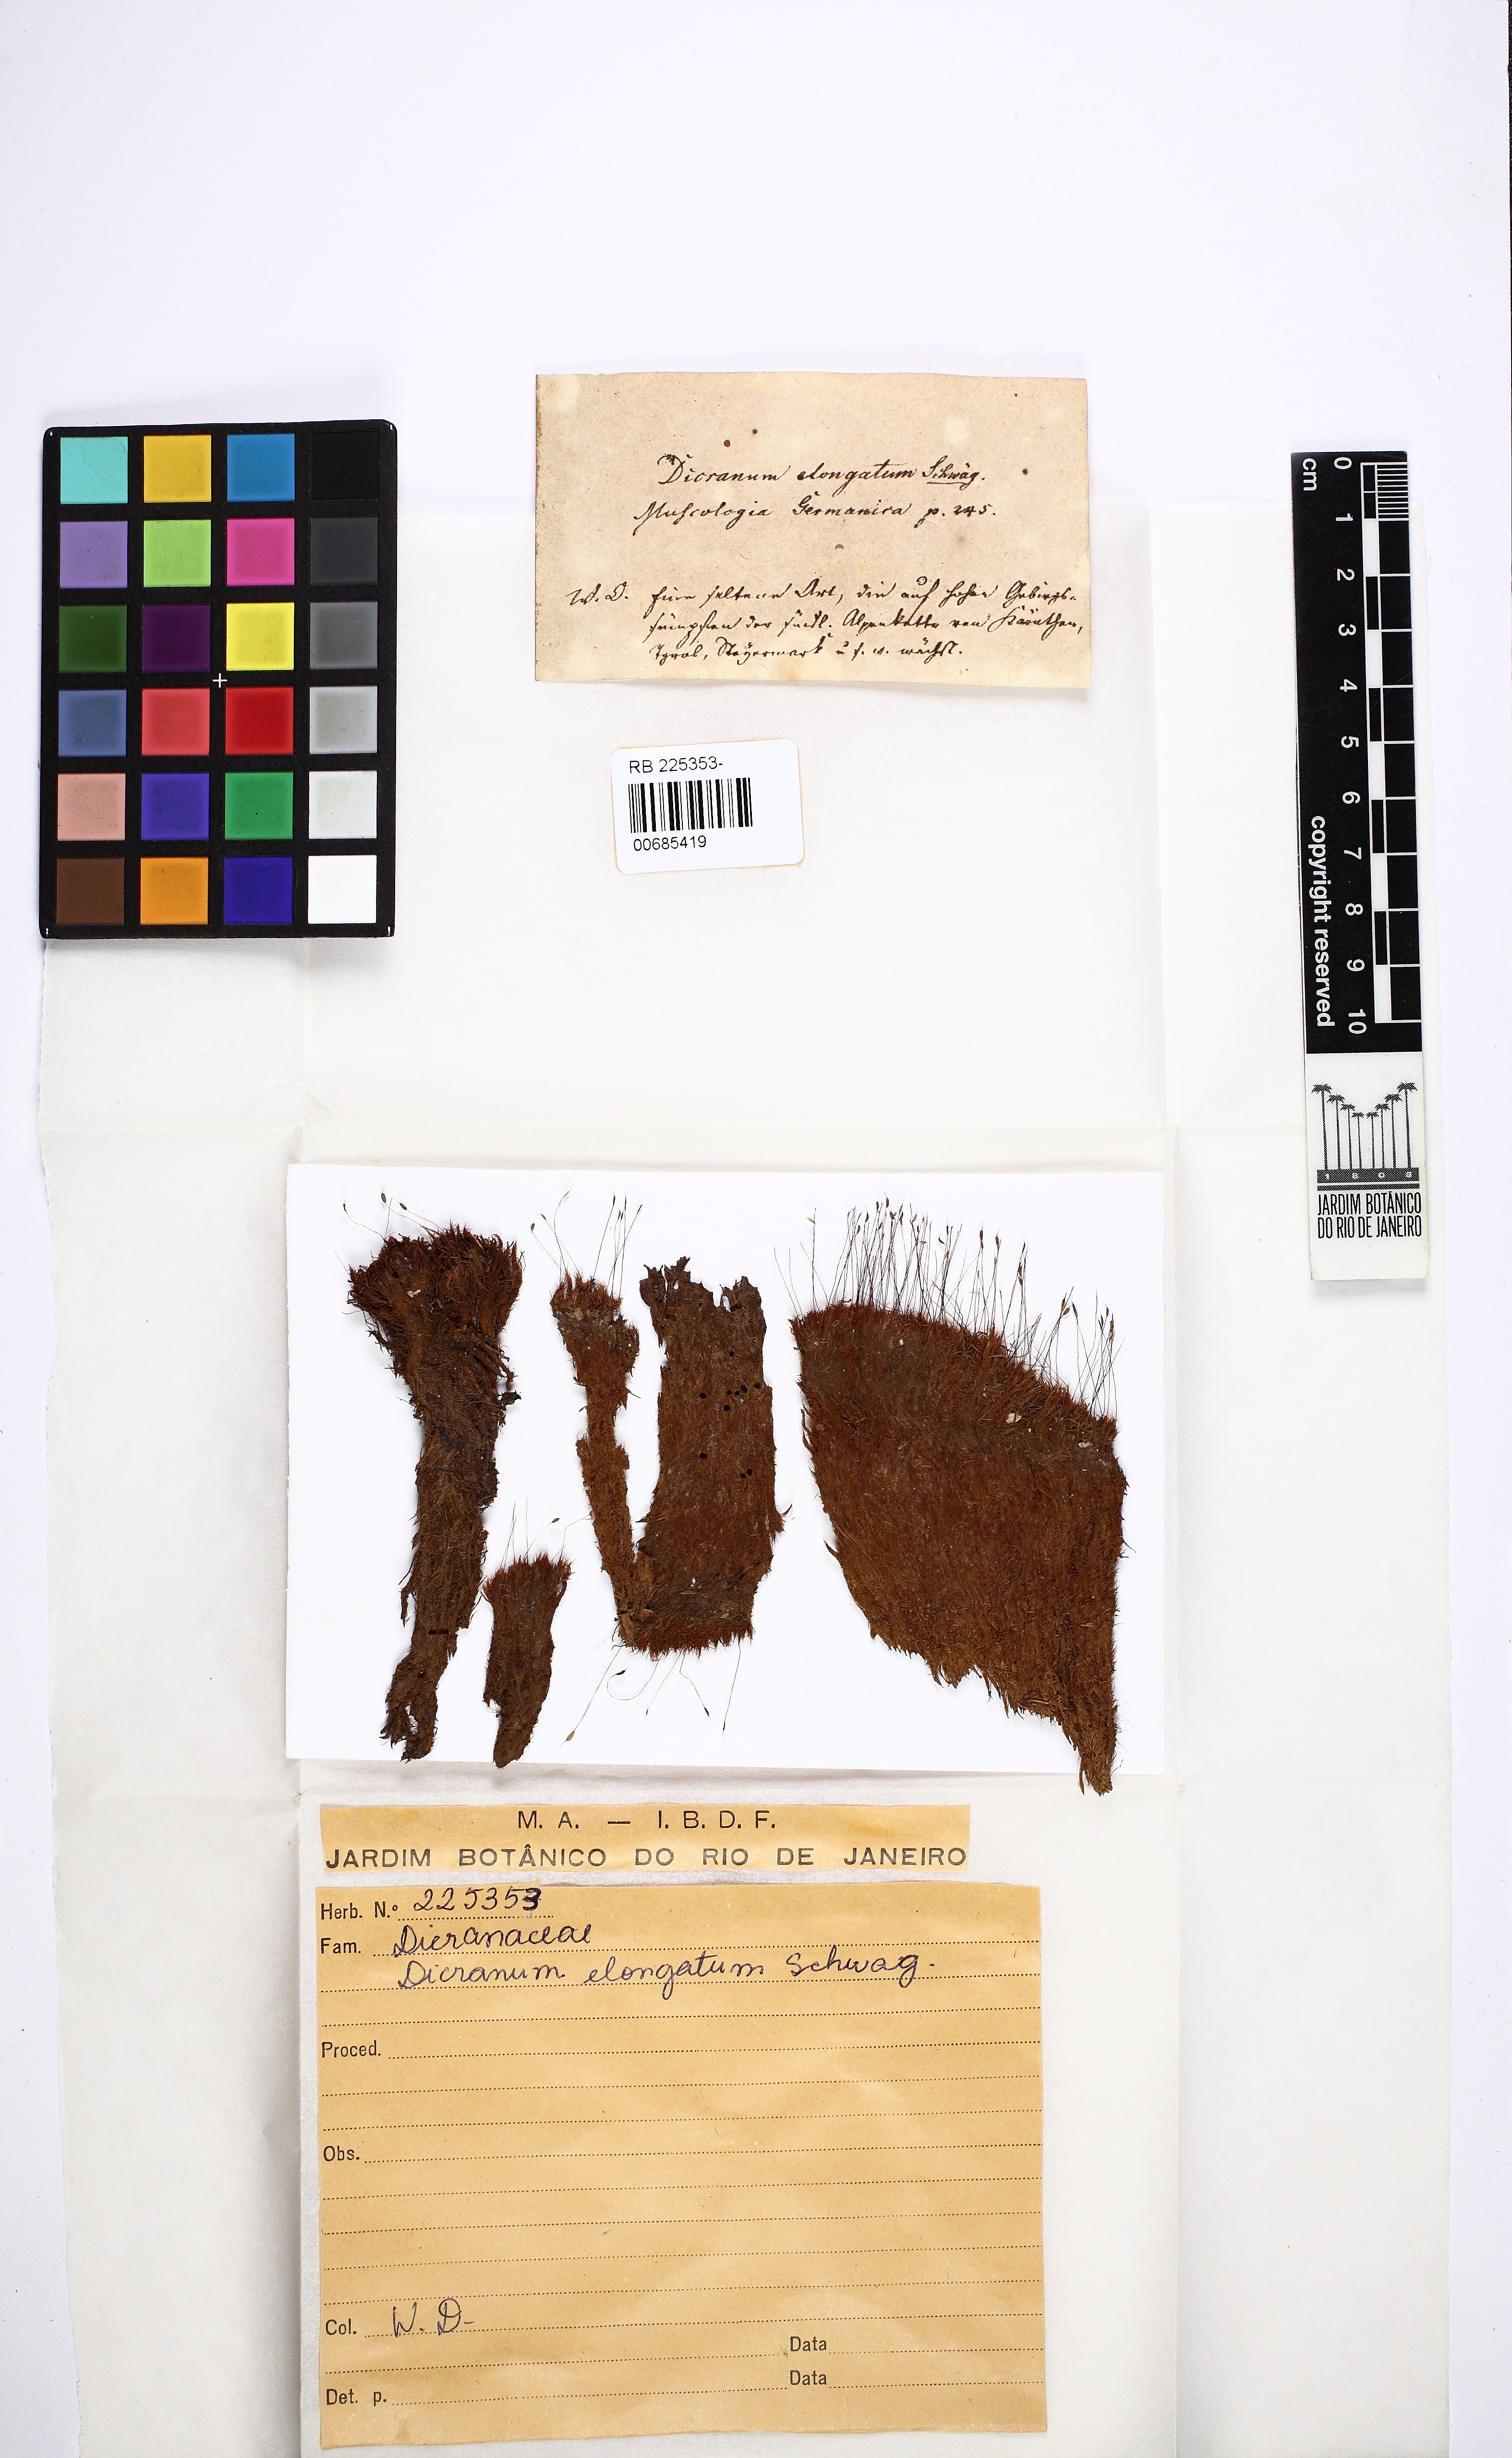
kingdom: Plantae
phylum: Bryophyta
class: Bryopsida
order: Dicranales
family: Dicranaceae
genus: Dicranum
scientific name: Dicranum elongatum
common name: Long-forked broom moss
